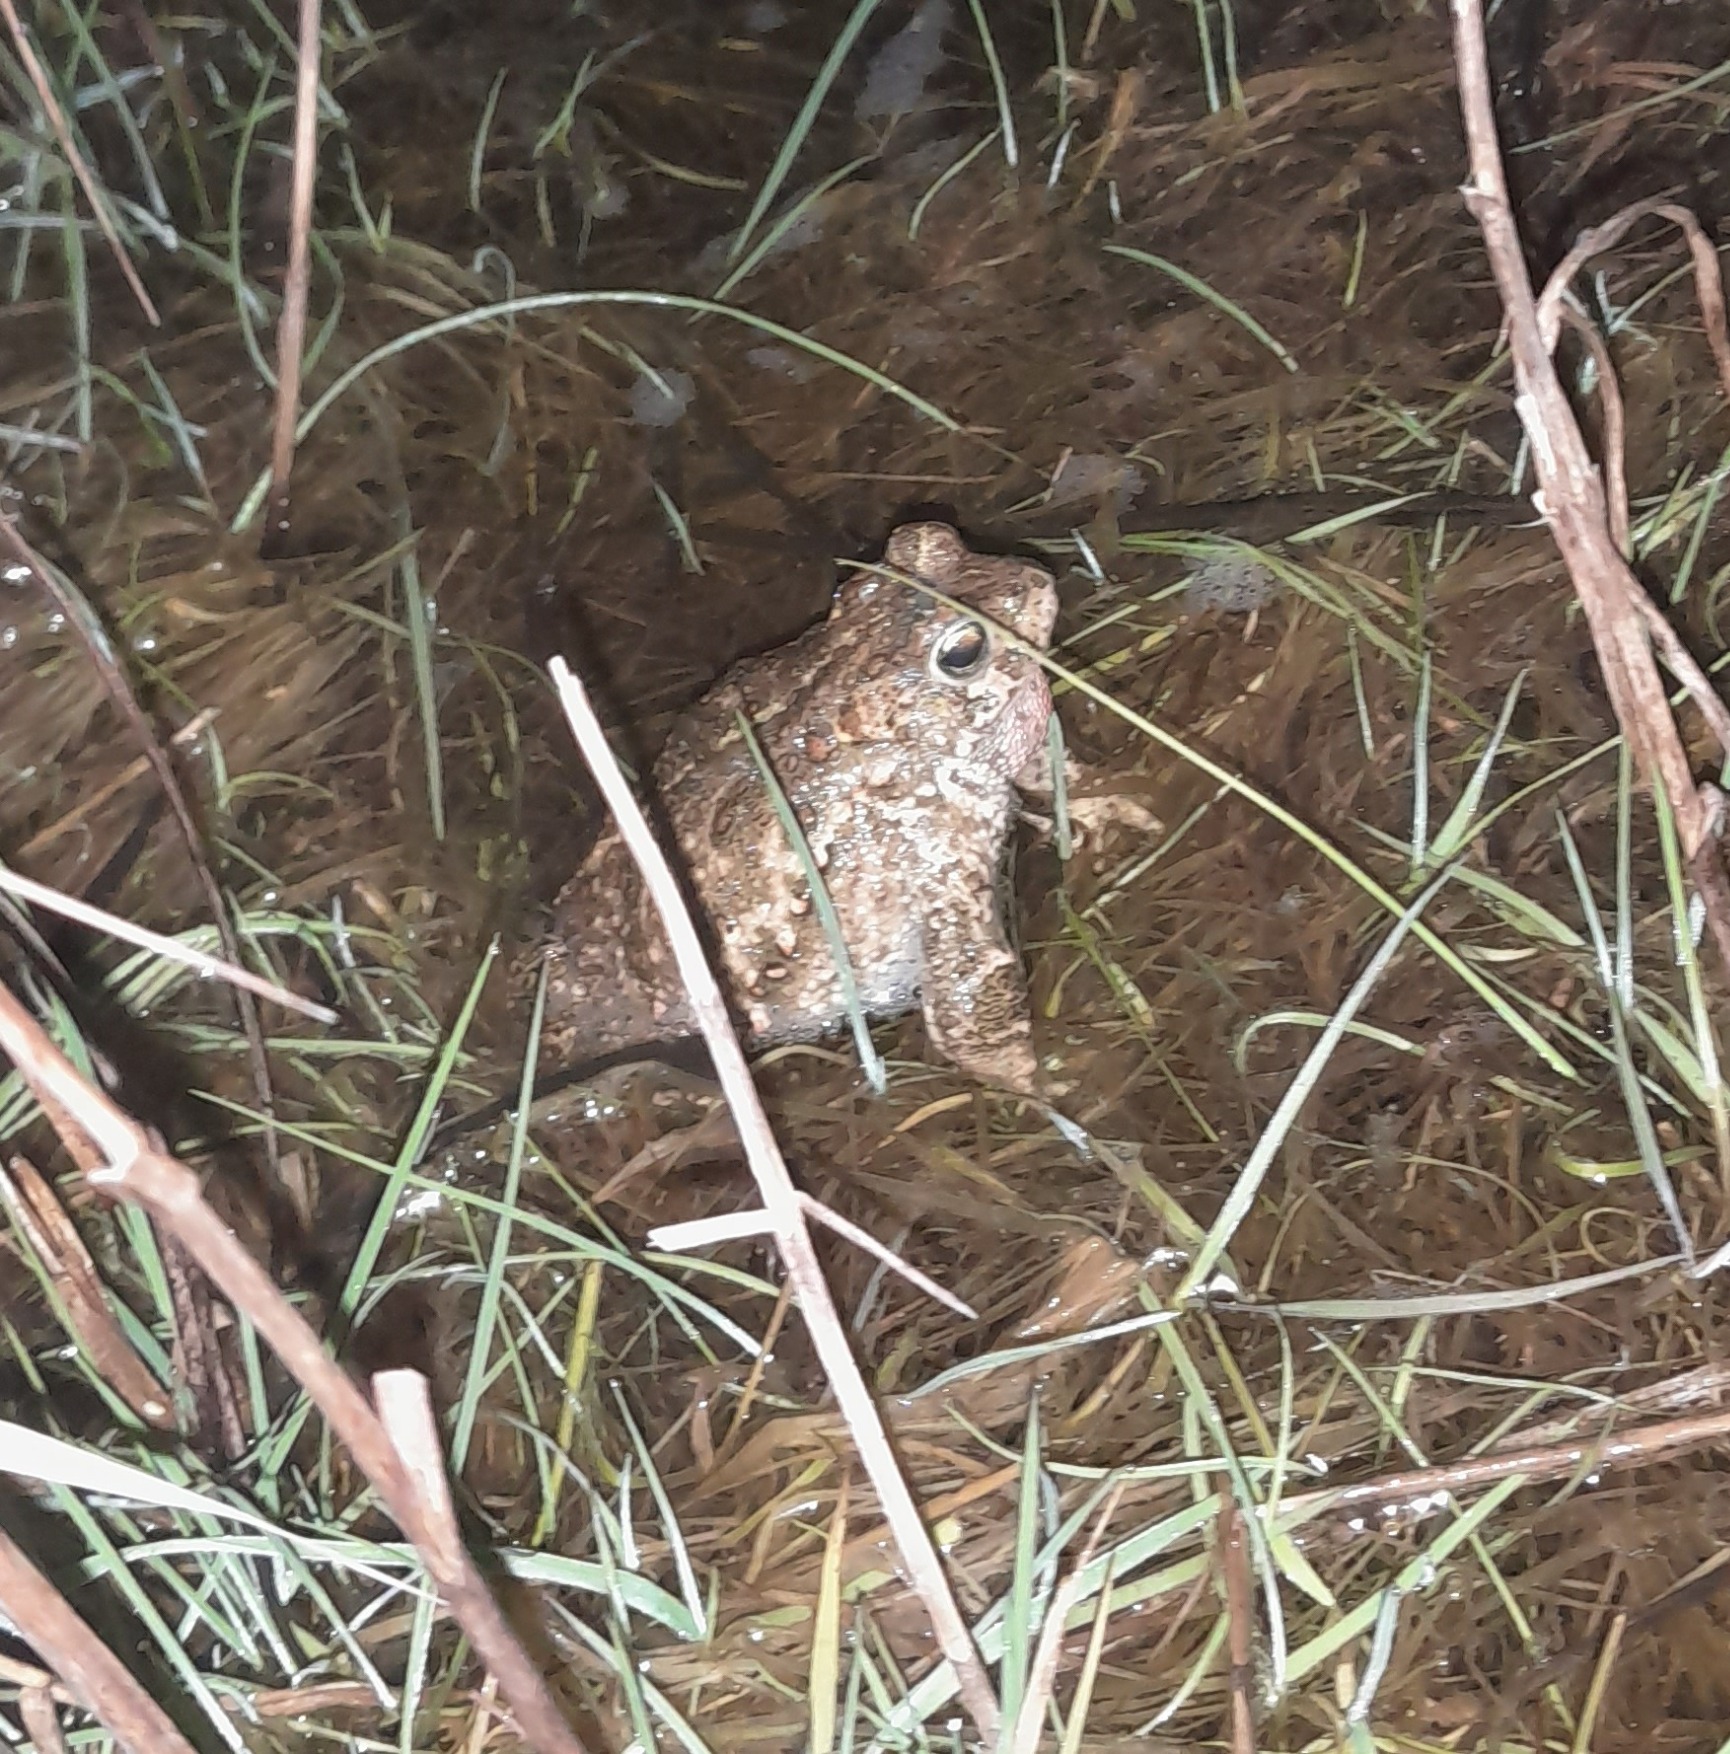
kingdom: Animalia
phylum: Chordata
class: Amphibia
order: Anura
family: Bufonidae
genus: Epidalea
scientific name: Epidalea calamita
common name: Strandtudse
